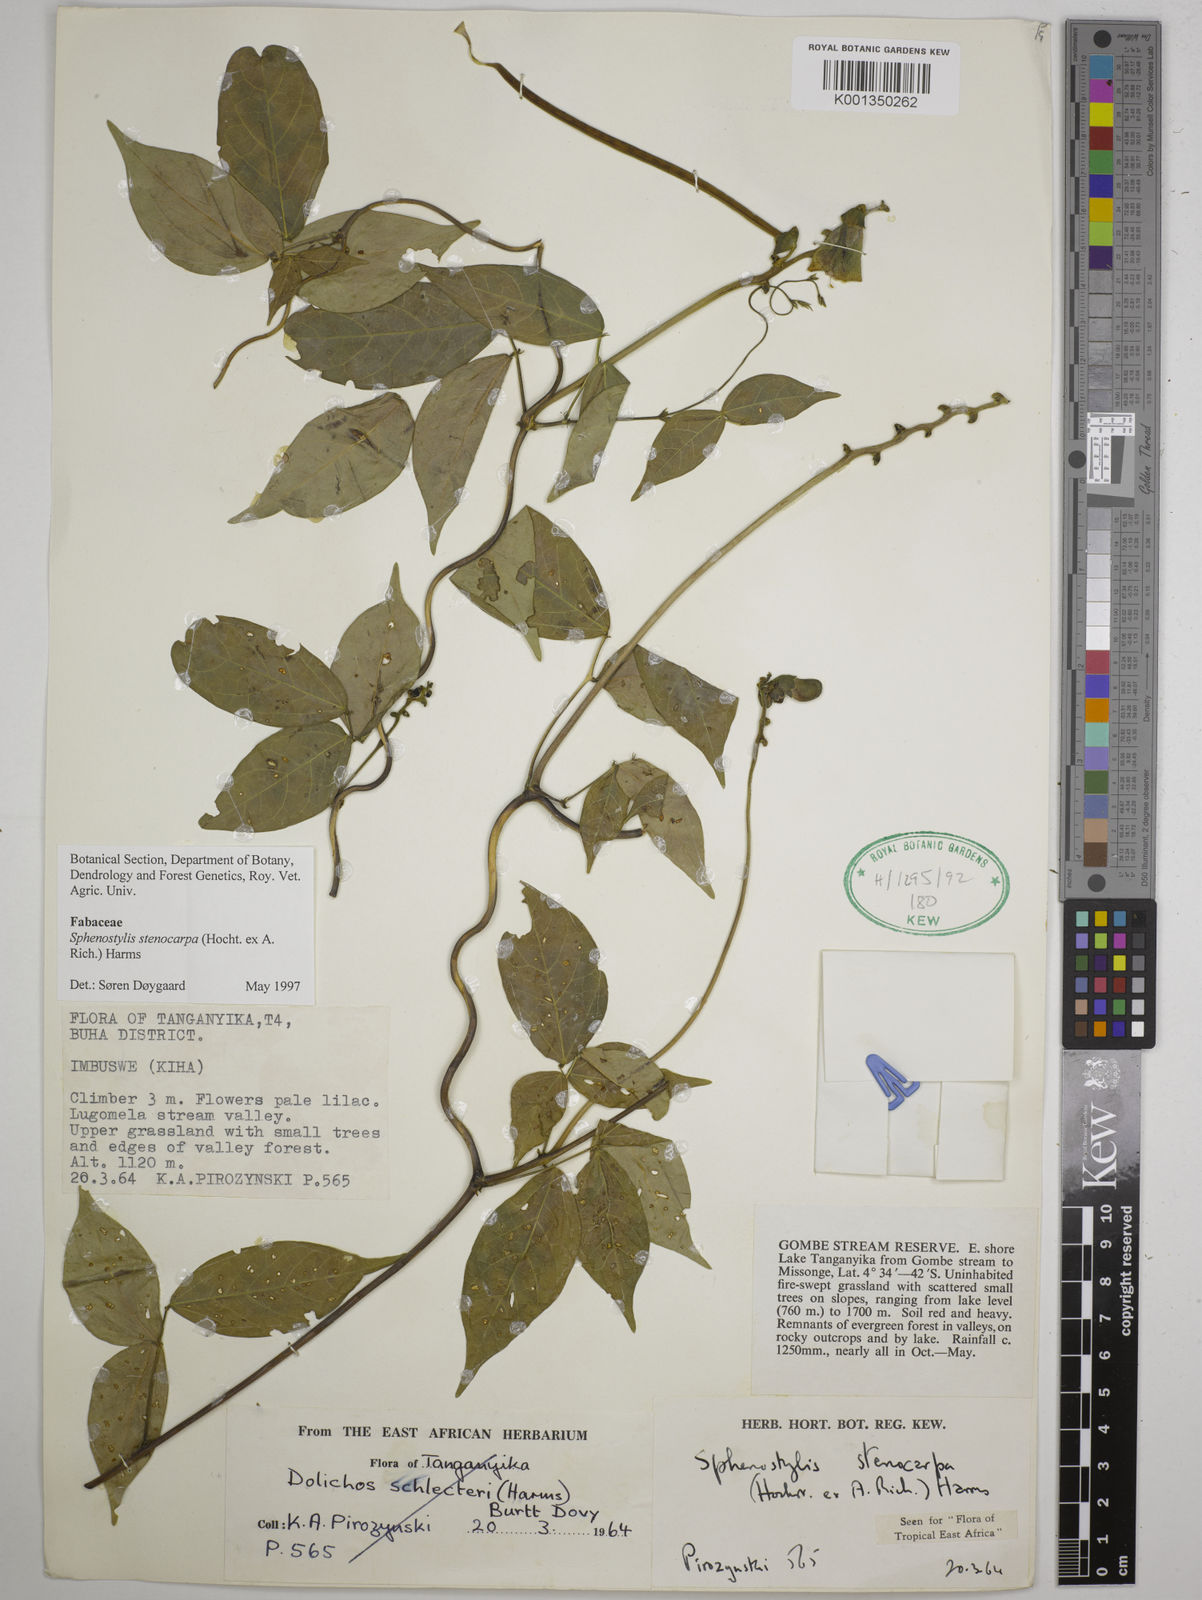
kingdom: Plantae
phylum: Tracheophyta
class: Magnoliopsida
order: Fabales
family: Fabaceae
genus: Sphenostylis
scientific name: Sphenostylis stenocarpa
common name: Yam-pea
